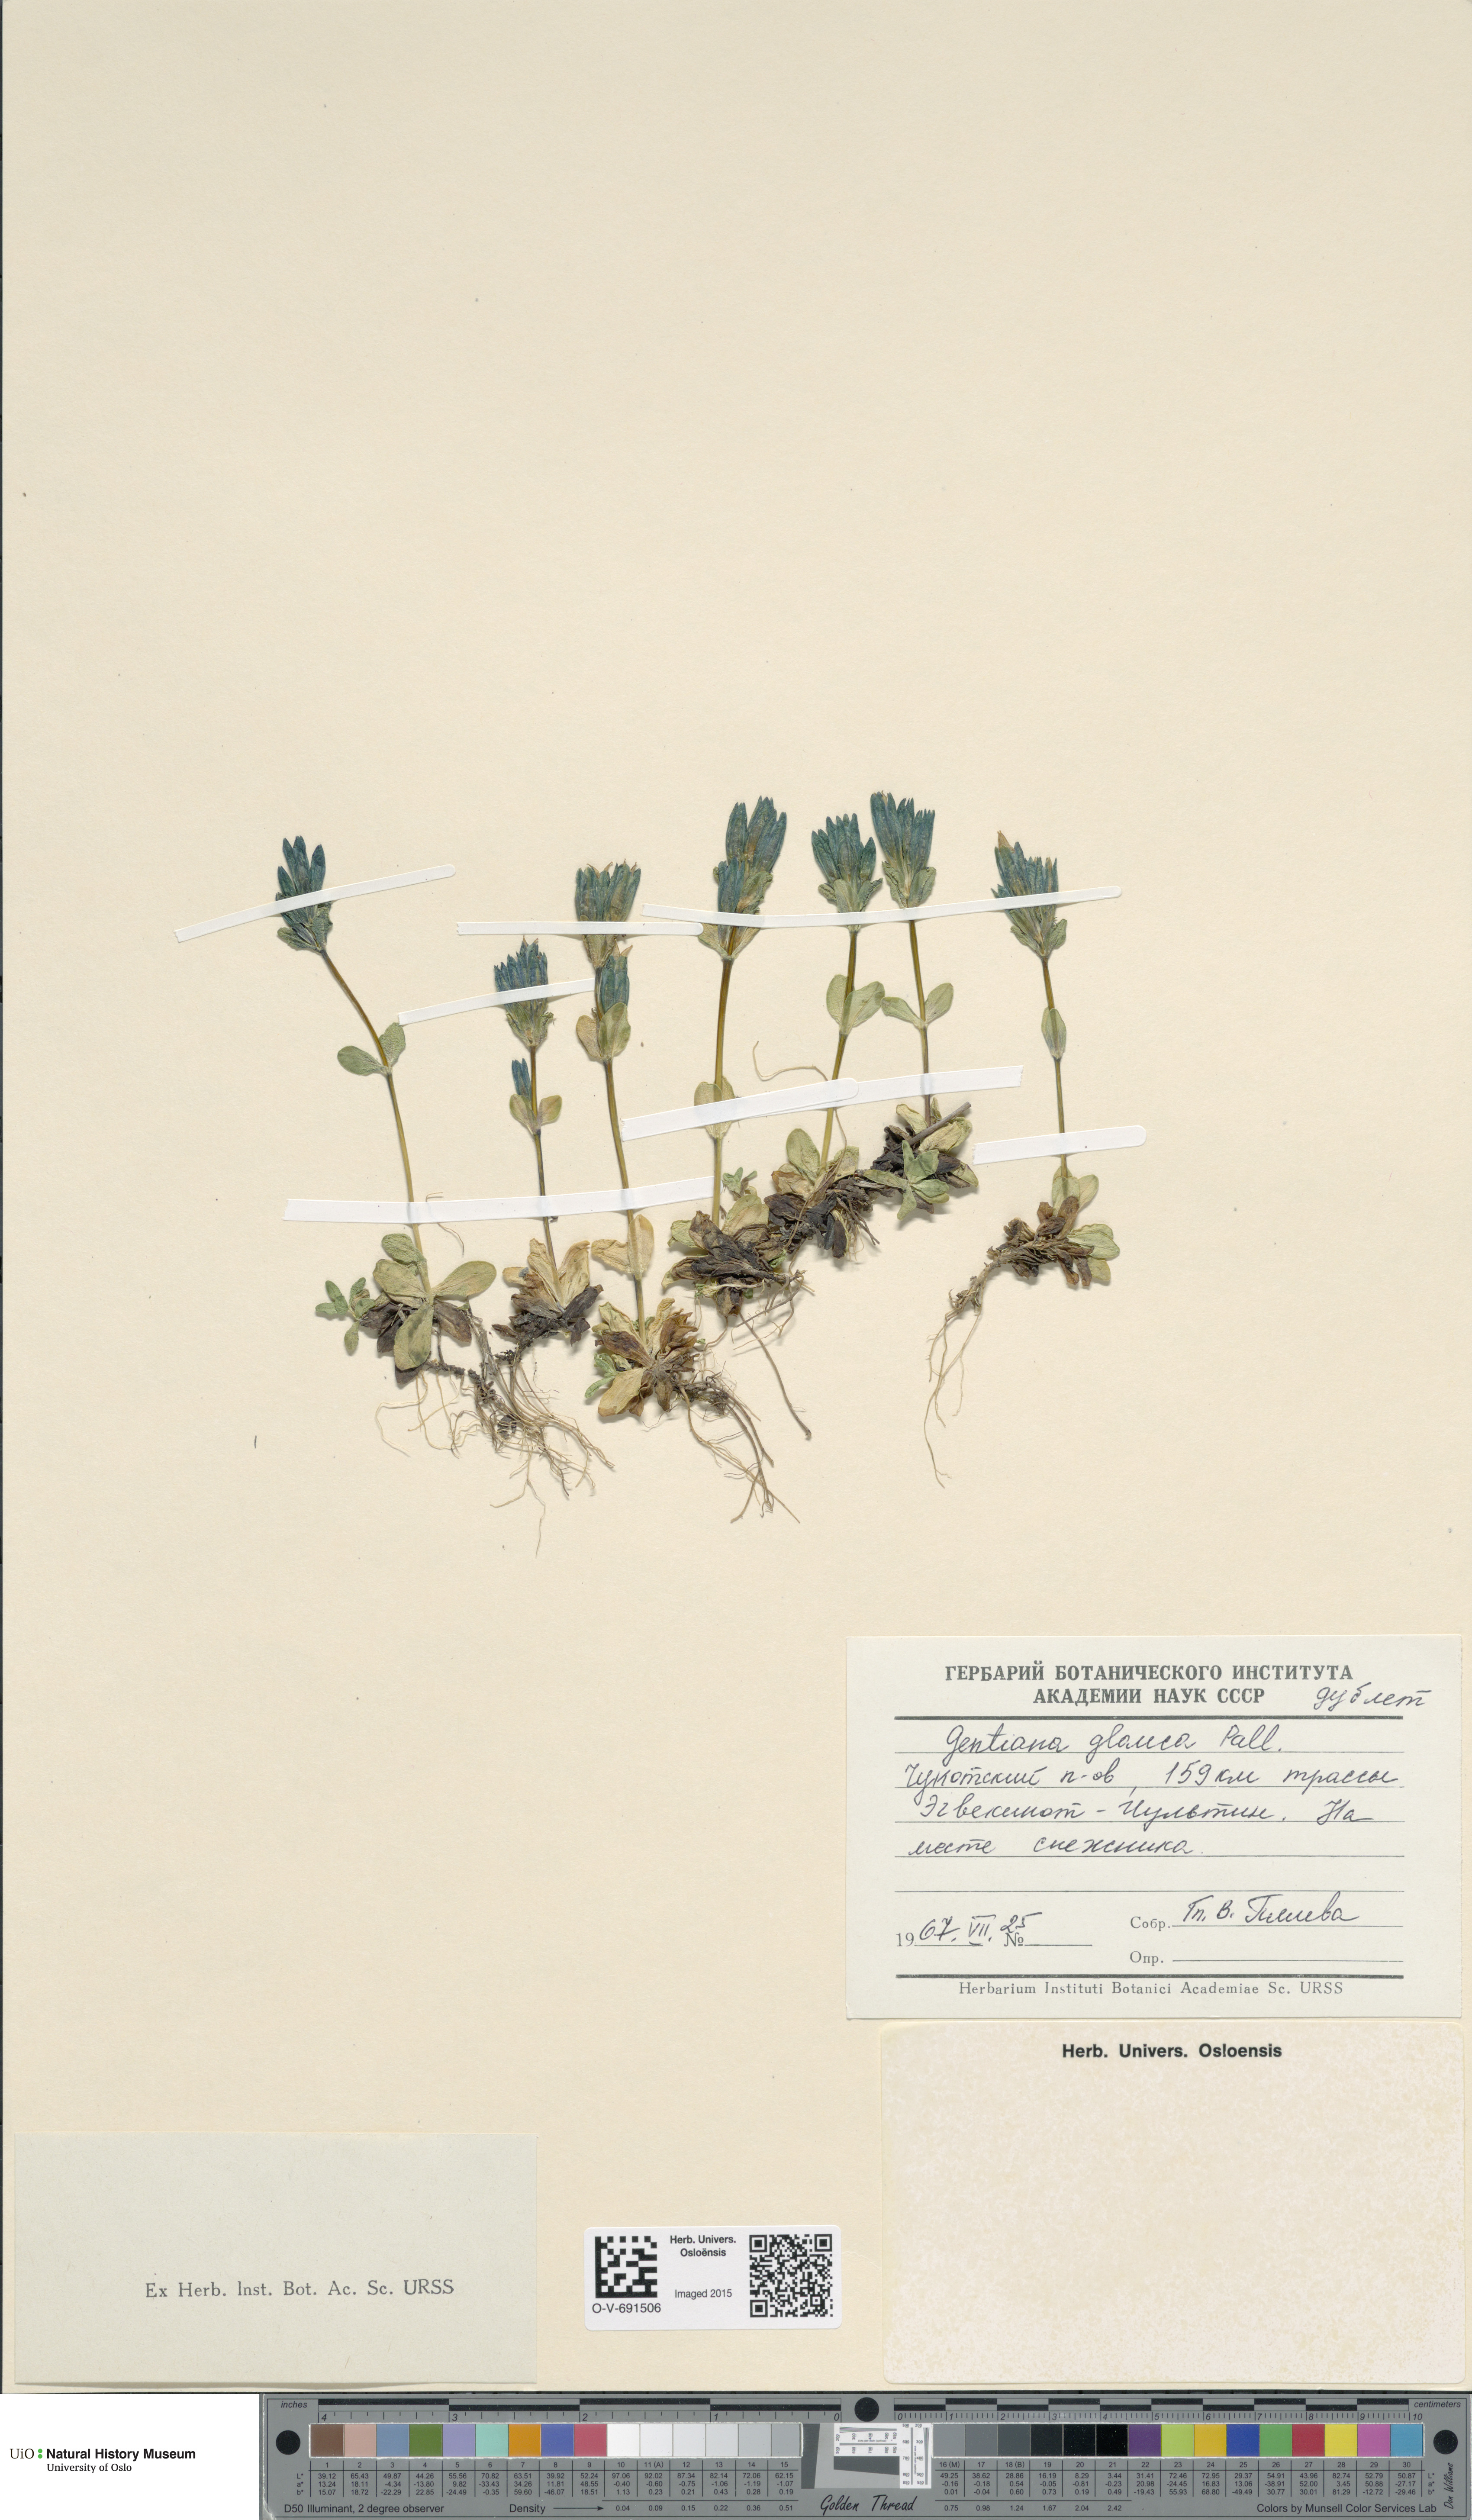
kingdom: Plantae
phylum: Tracheophyta
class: Magnoliopsida
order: Gentianales
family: Gentianaceae
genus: Gentiana
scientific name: Gentiana glauca
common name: Alpine gentian
